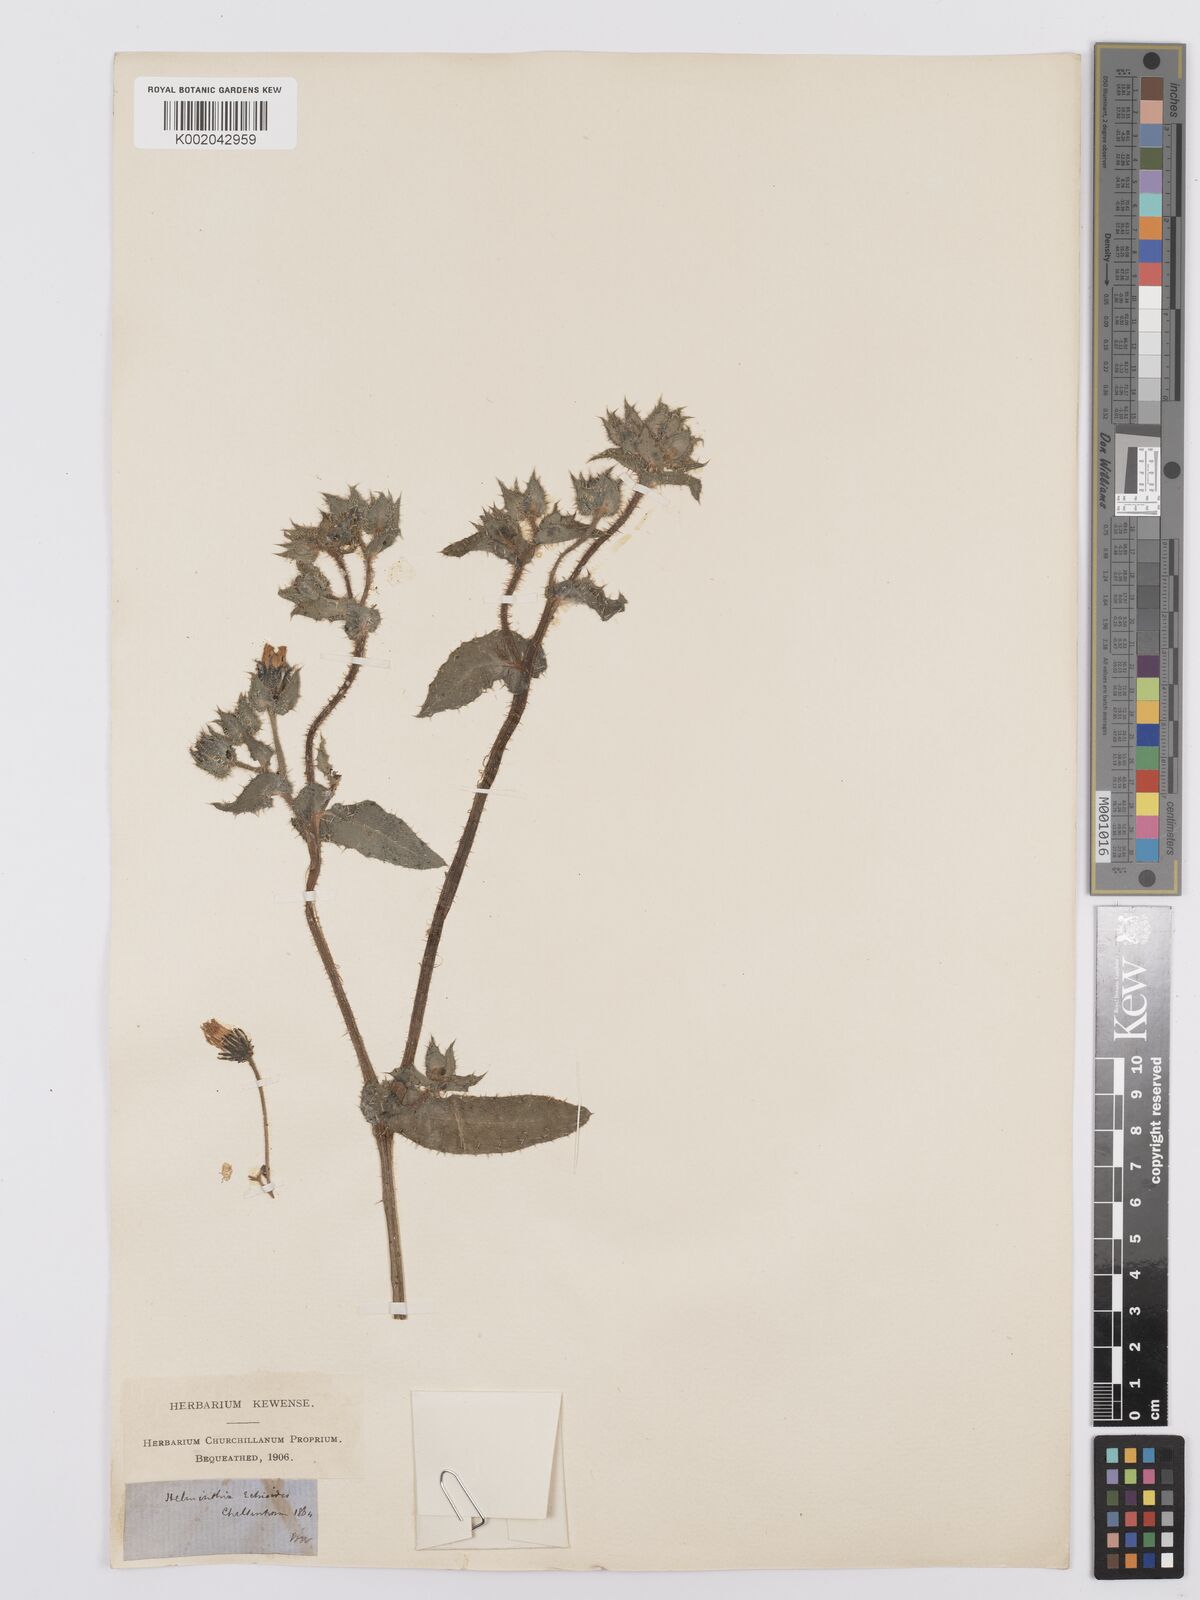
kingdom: Plantae
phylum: Tracheophyta
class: Magnoliopsida
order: Asterales
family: Asteraceae
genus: Helminthotheca
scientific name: Helminthotheca echioides
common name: Ox-tongue
